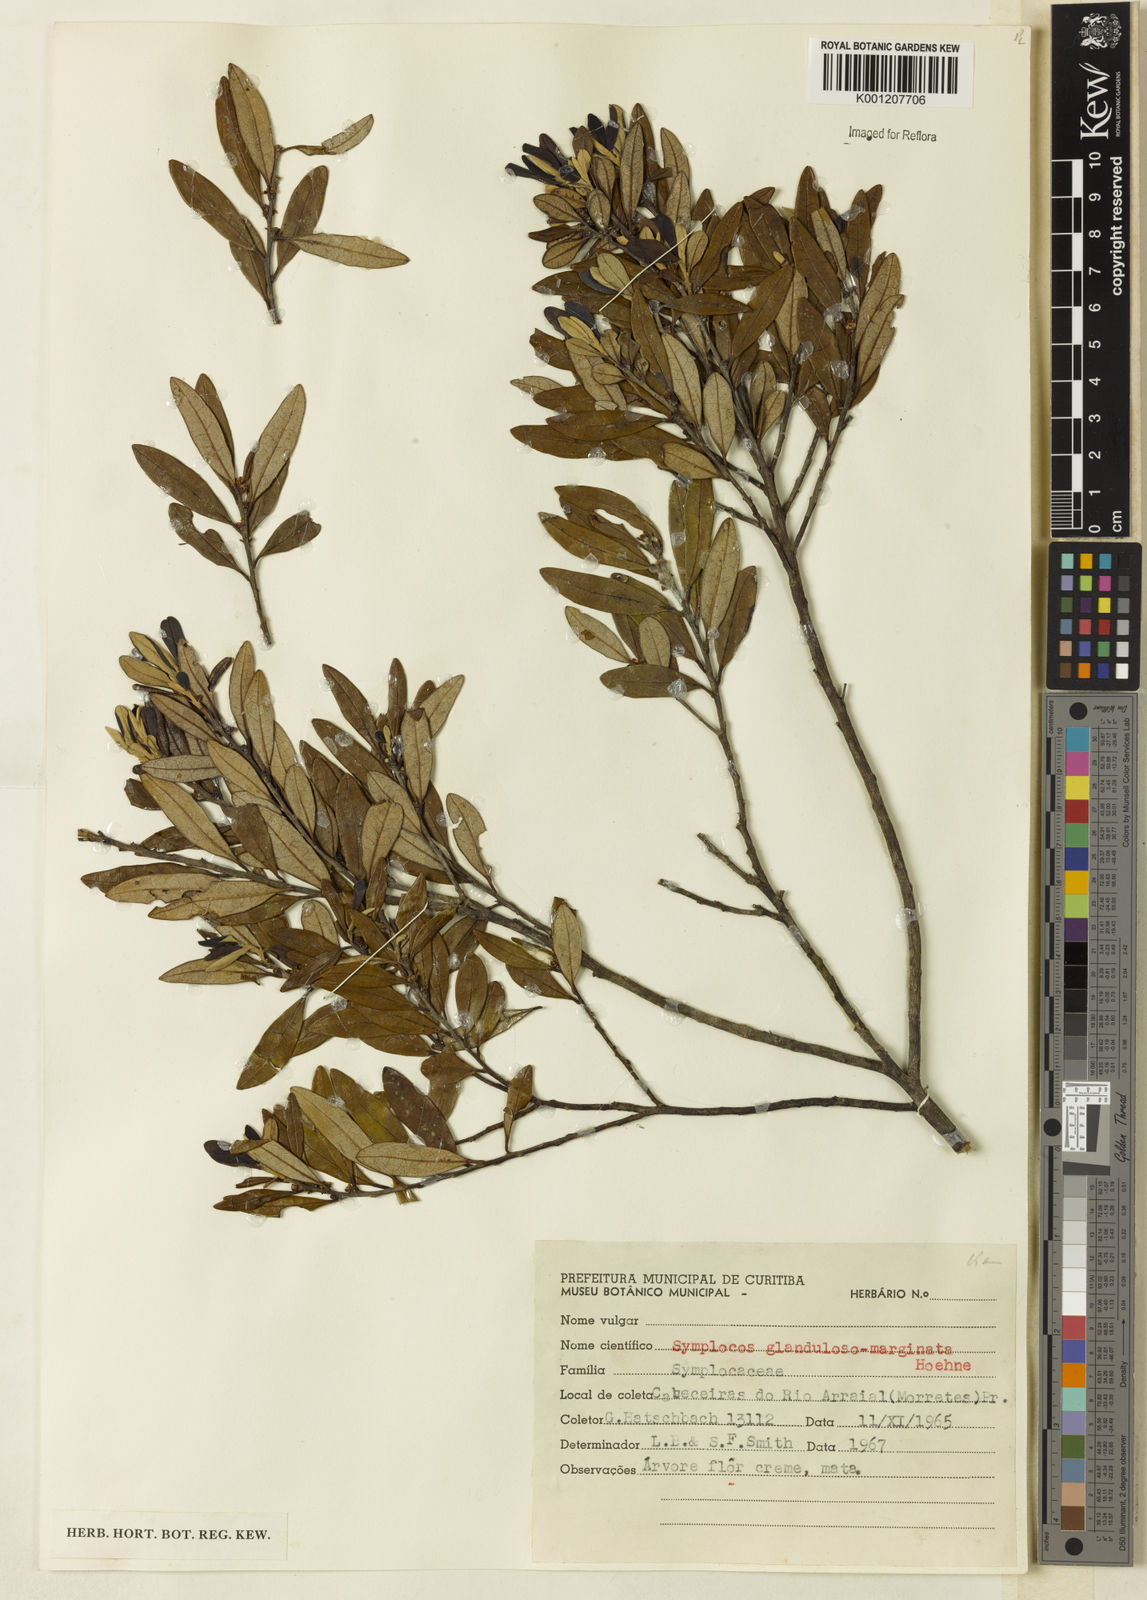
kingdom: Plantae
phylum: Tracheophyta
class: Magnoliopsida
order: Ericales
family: Symplocaceae
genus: Symplocos
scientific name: Symplocos glandulosomarginata
